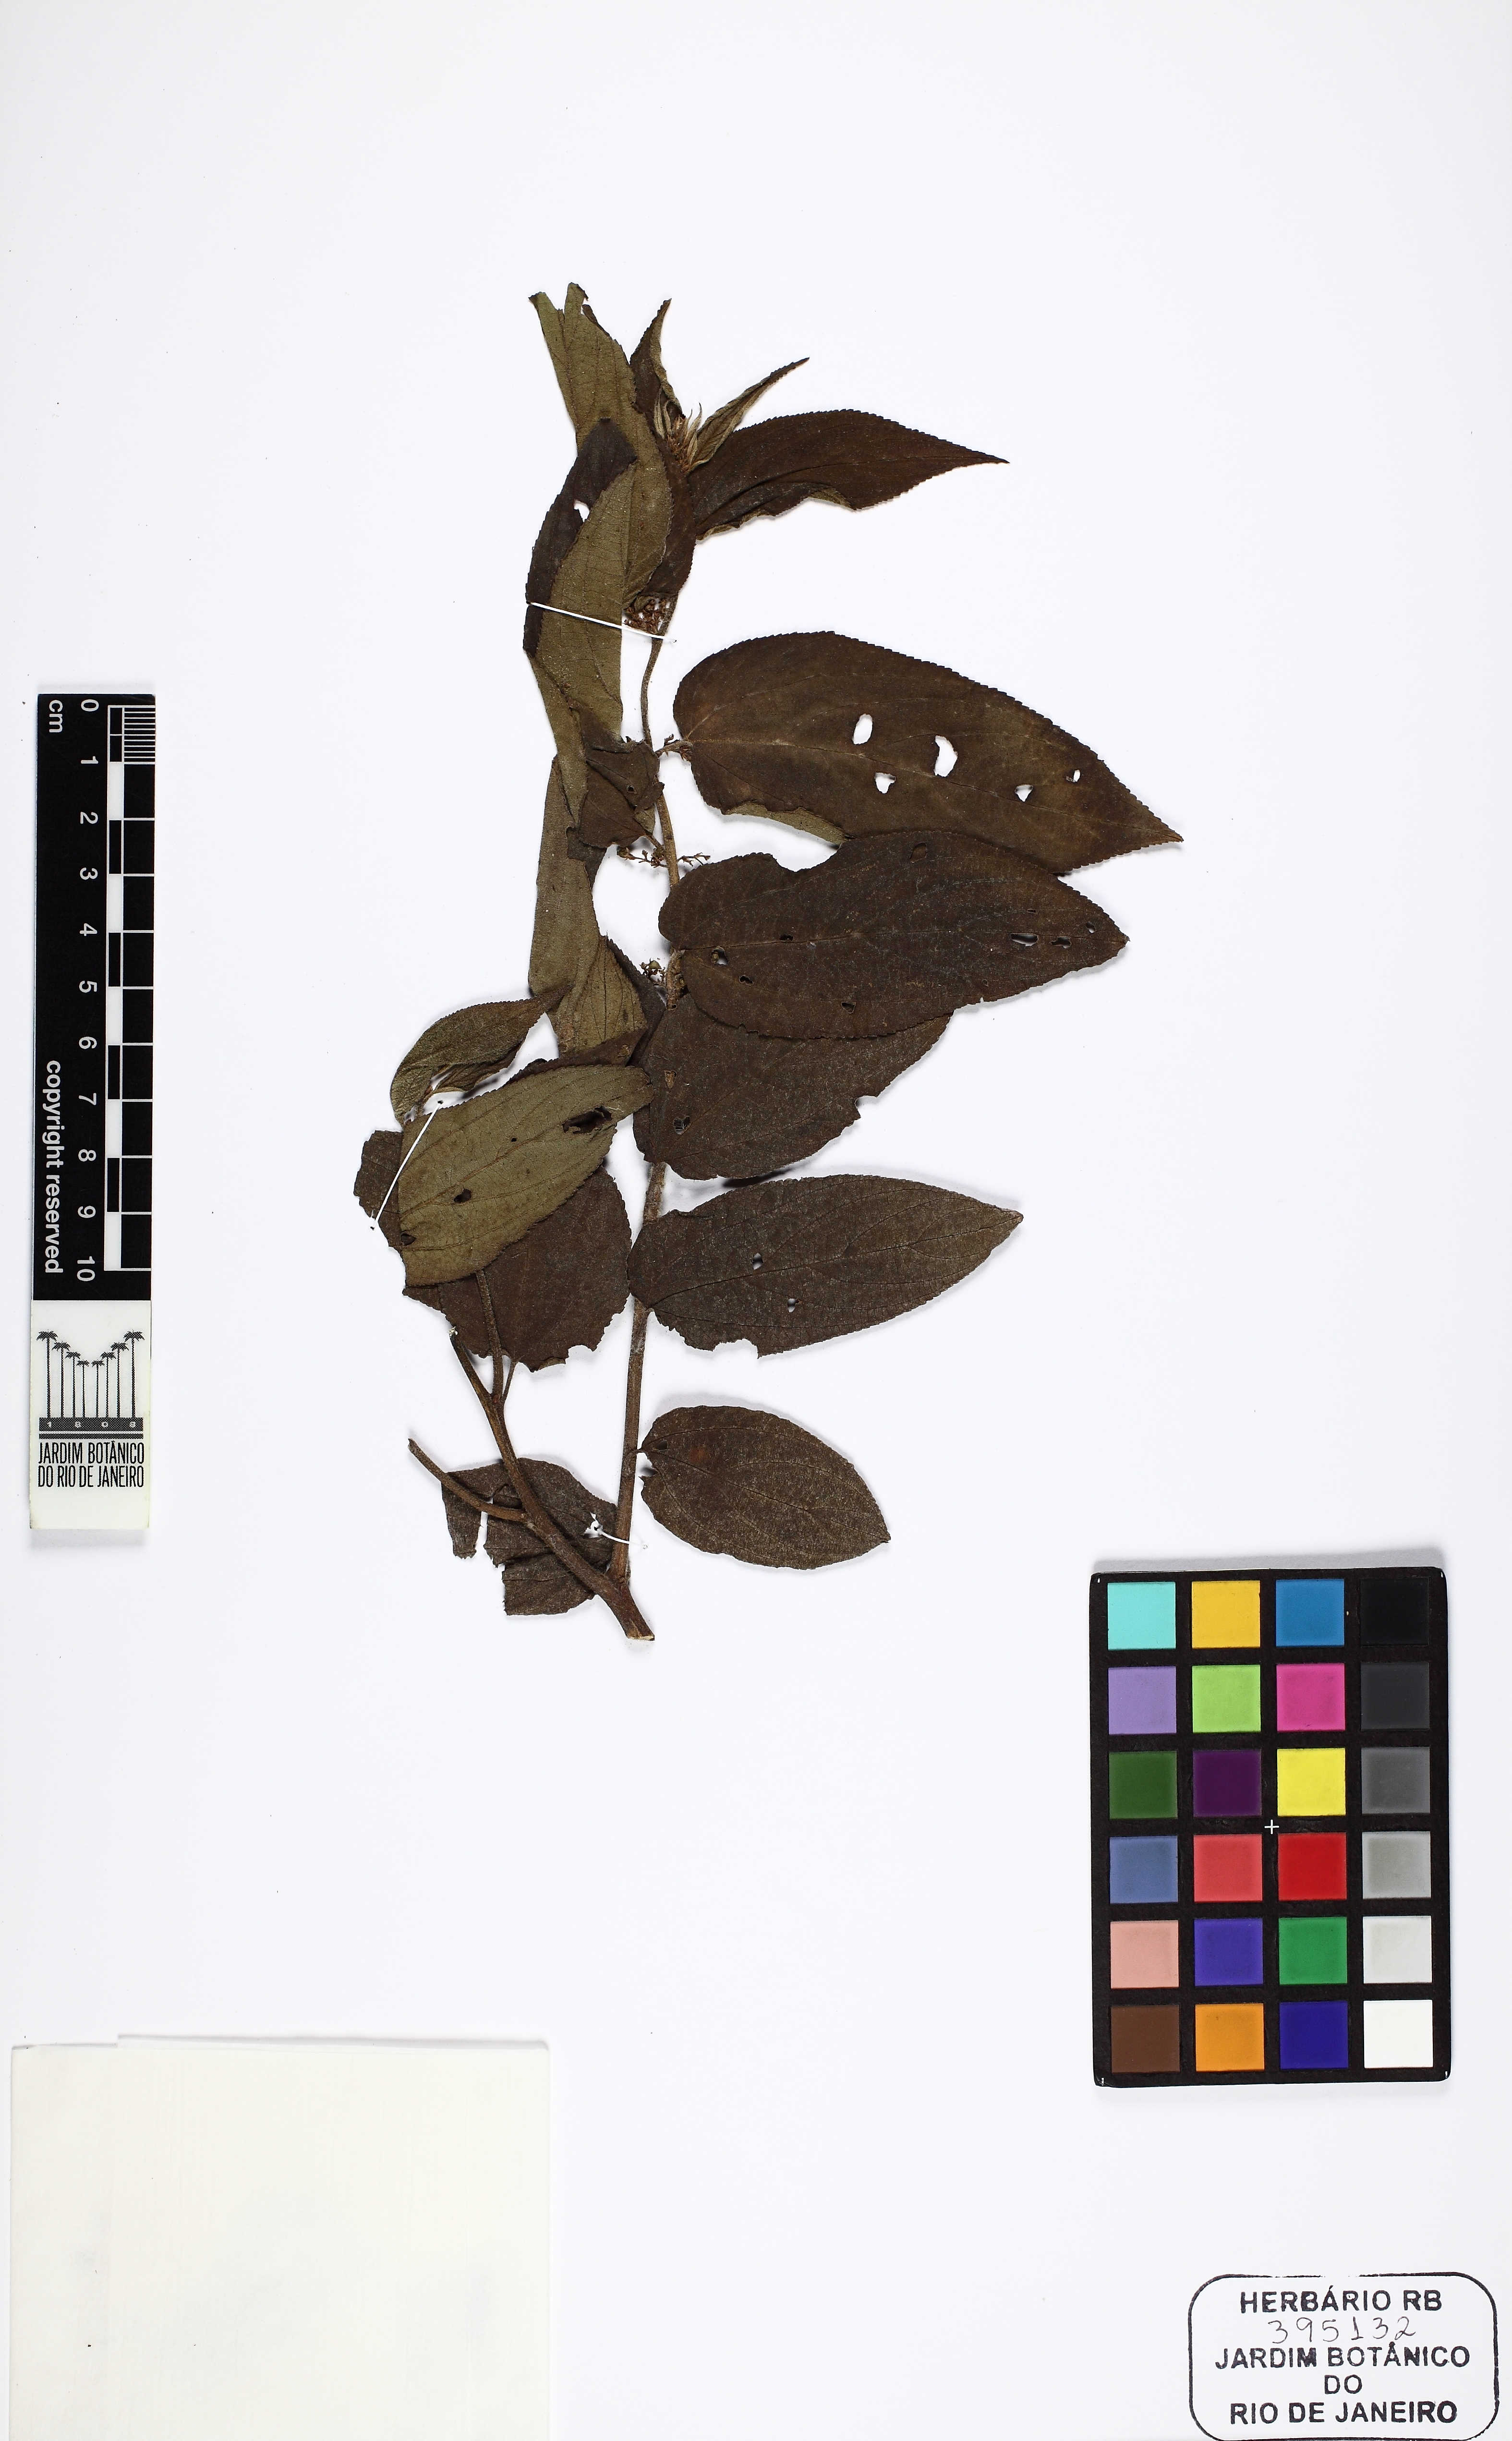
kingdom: Plantae
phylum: Tracheophyta
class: Magnoliopsida
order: Rosales
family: Cannabaceae
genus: Trema
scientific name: Trema micranthum
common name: Jamaican nettletree
